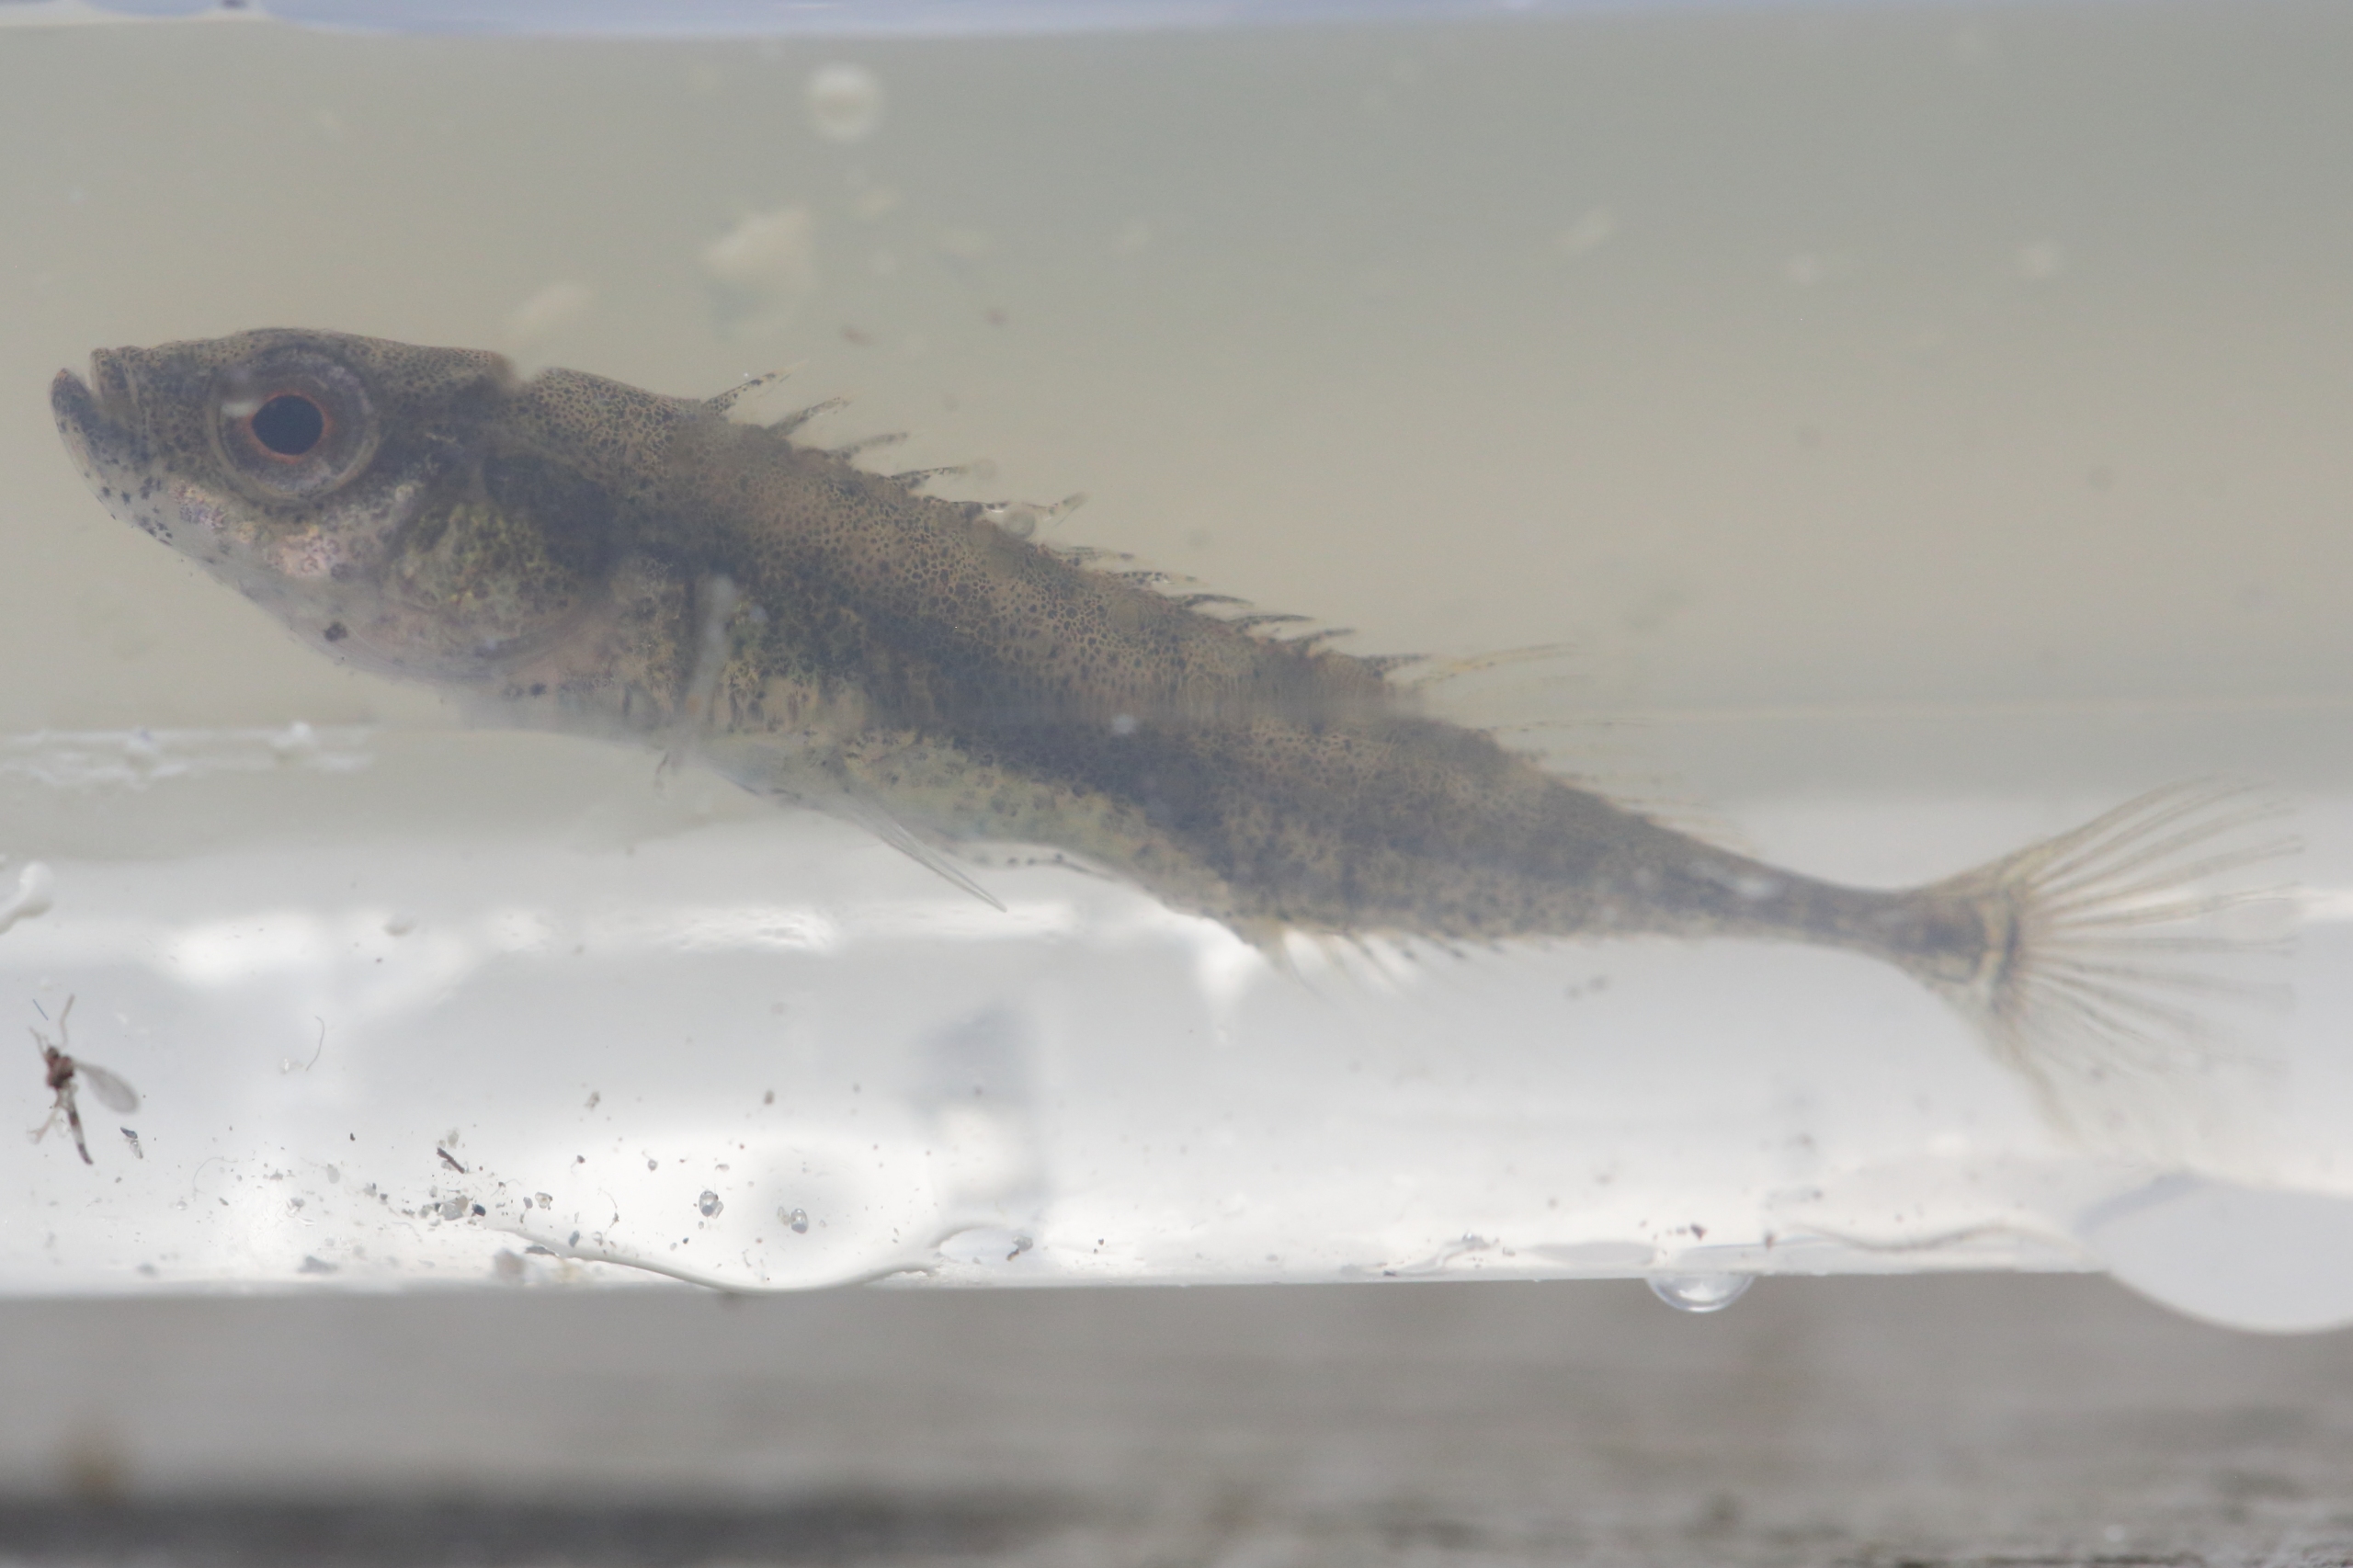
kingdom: Animalia
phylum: Chordata
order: Gasterosteiformes
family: Gasterosteidae
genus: Pungitius
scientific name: Pungitius pungitius
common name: Nipigget hundestejle
